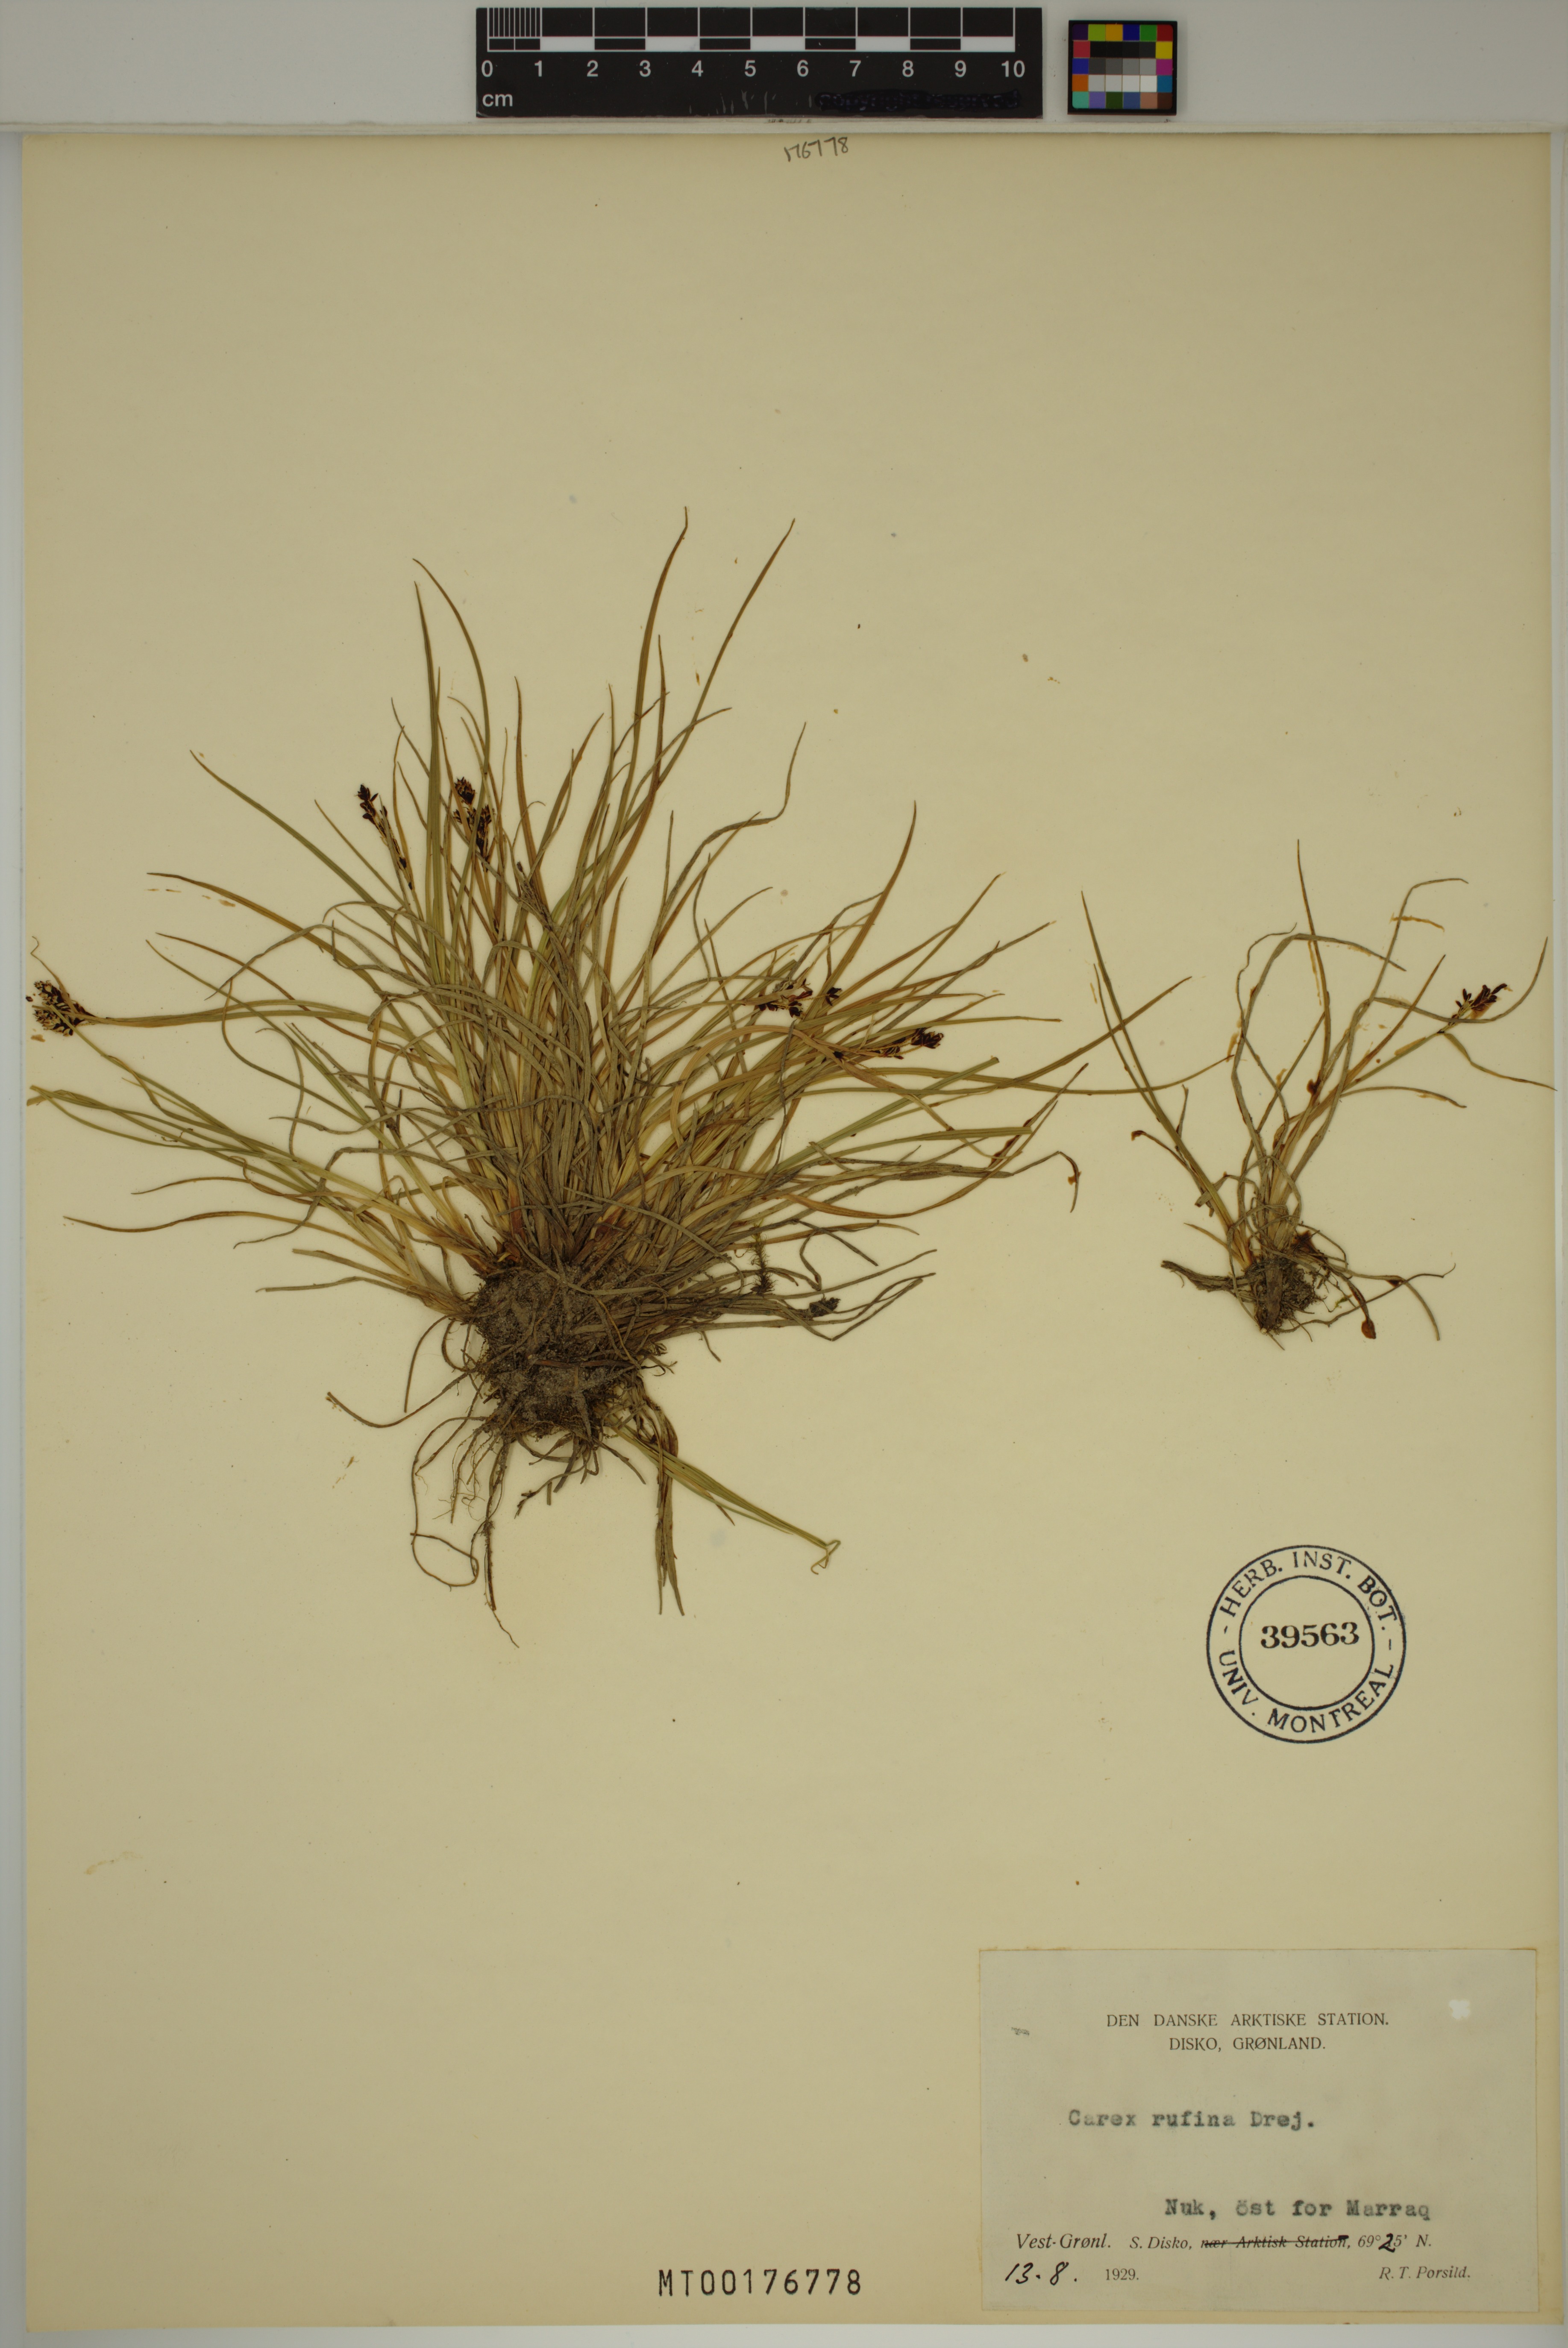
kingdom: Plantae
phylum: Tracheophyta
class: Liliopsida
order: Poales
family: Cyperaceae
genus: Carex
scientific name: Carex rufina
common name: Reddish sedge
